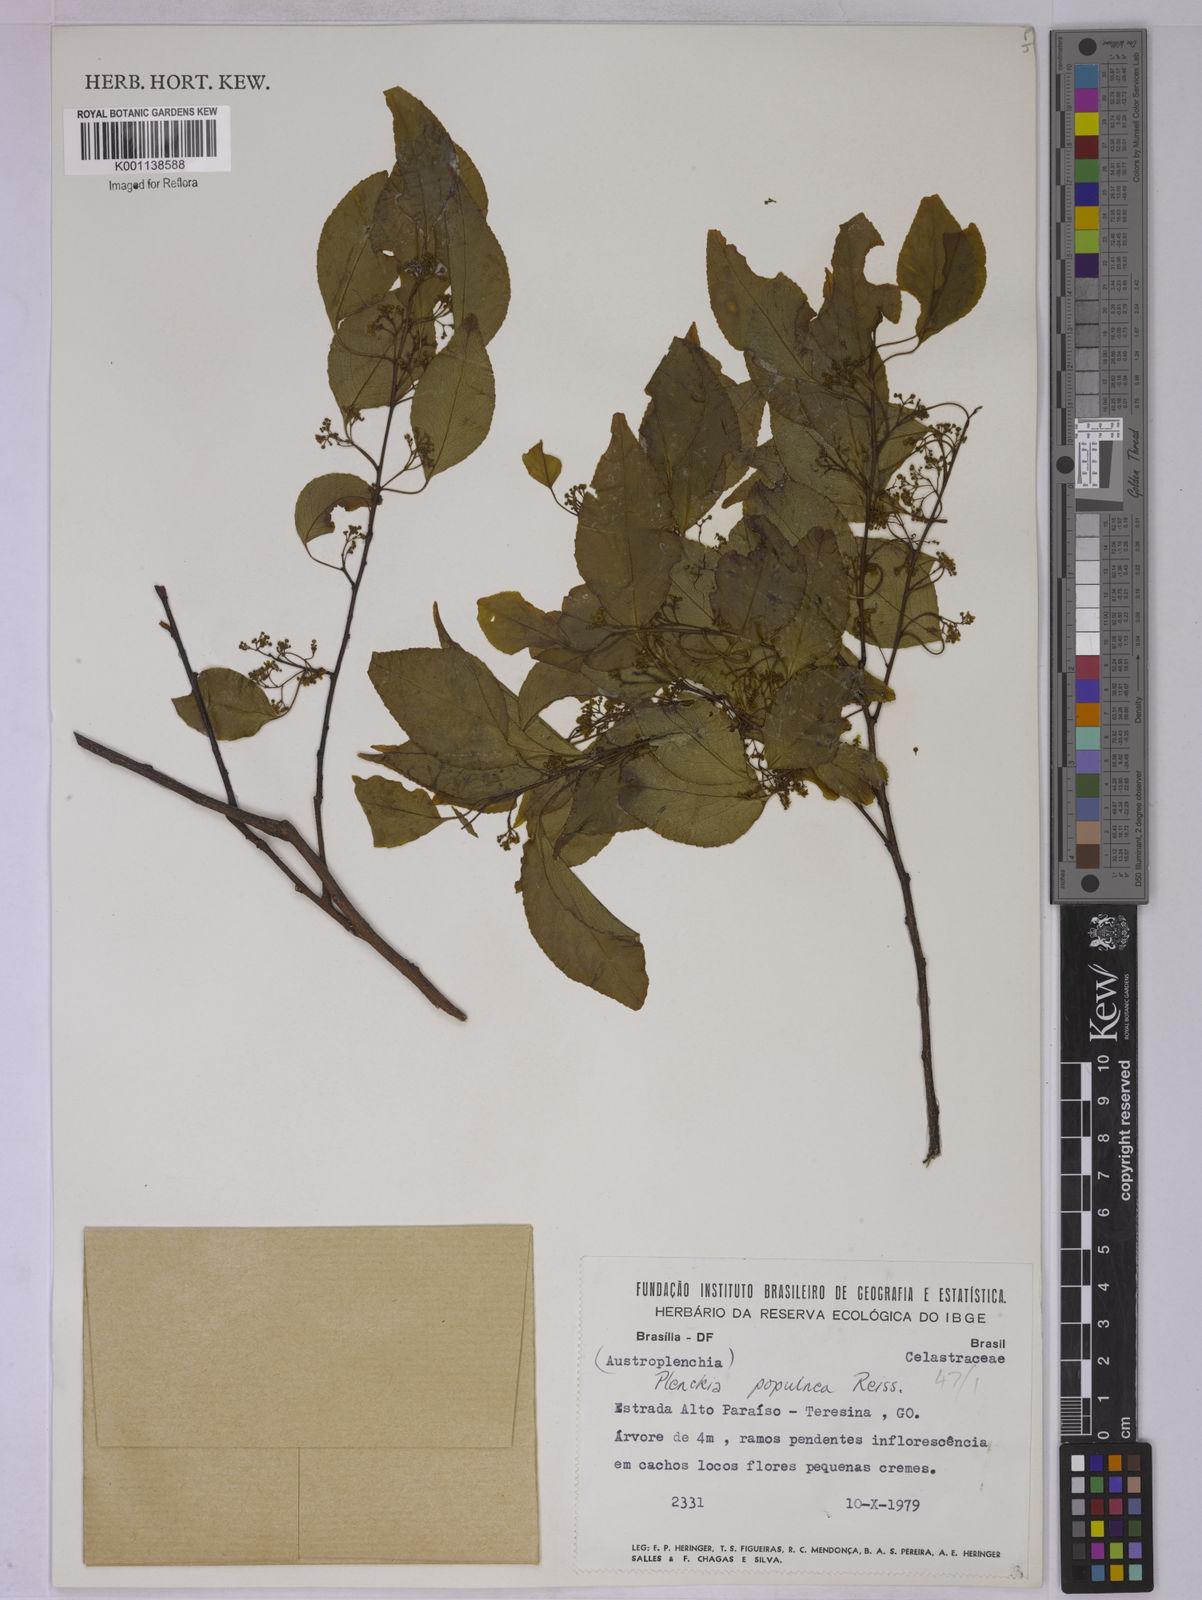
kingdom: Plantae
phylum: Tracheophyta
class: Magnoliopsida
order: Celastrales
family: Celastraceae
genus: Plenckia
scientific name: Plenckia populnea
